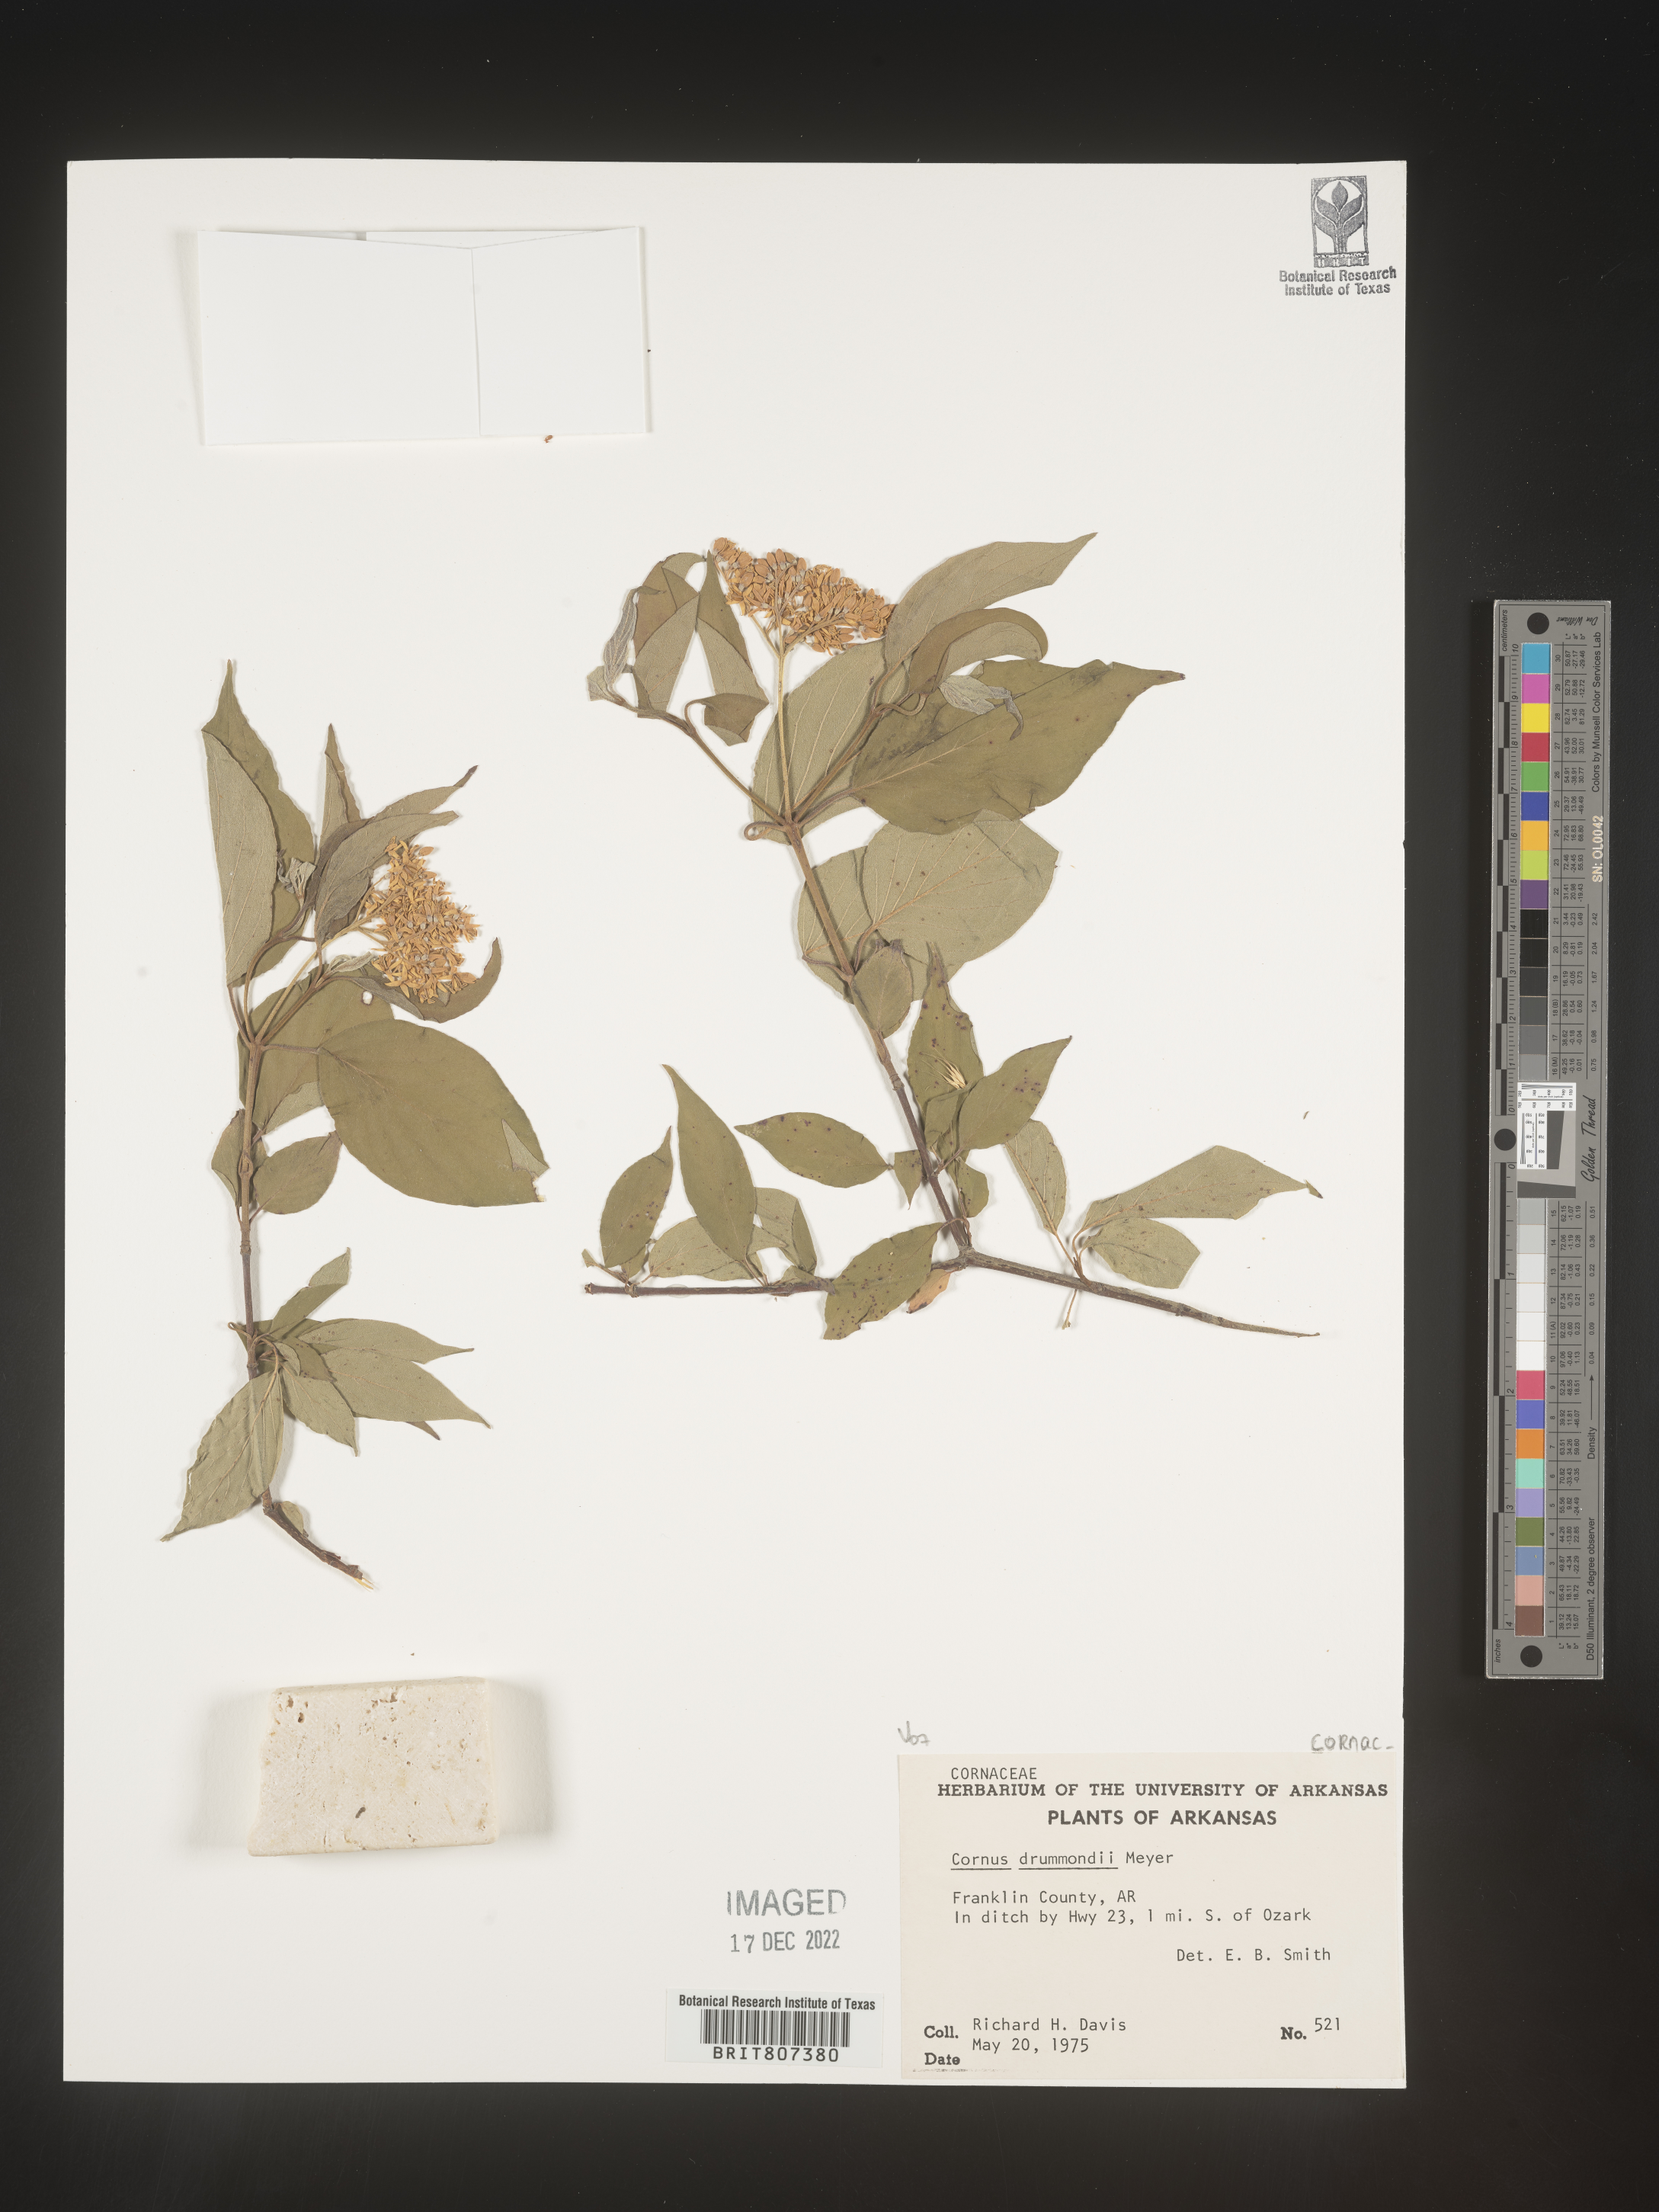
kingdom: Plantae
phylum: Tracheophyta
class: Magnoliopsida
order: Cornales
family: Cornaceae
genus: Cornus
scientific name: Cornus drummondii
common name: Rough-leaf dogwood
